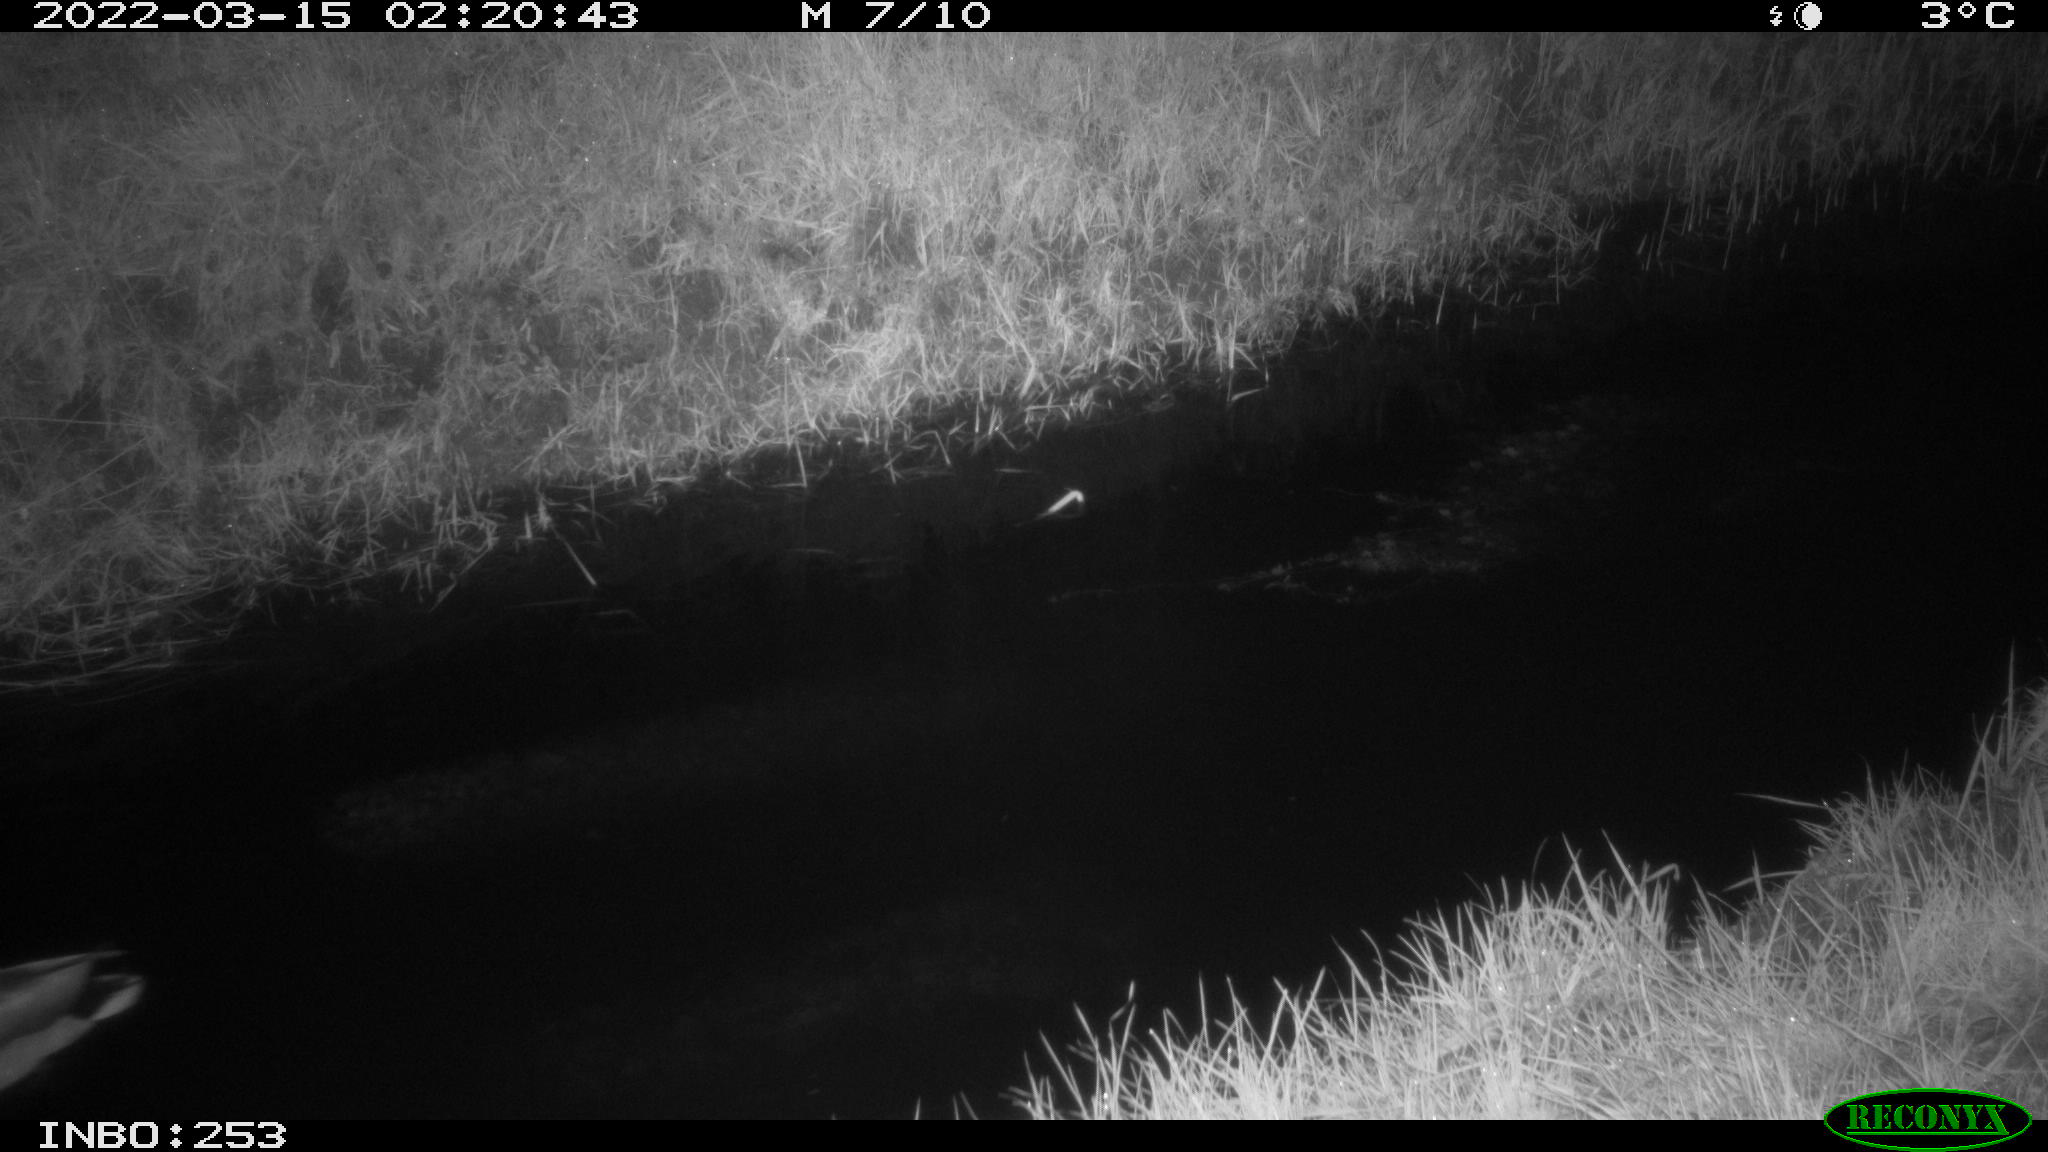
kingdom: Animalia
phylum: Chordata
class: Aves
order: Anseriformes
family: Anatidae
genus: Anas
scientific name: Anas platyrhynchos
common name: Mallard
